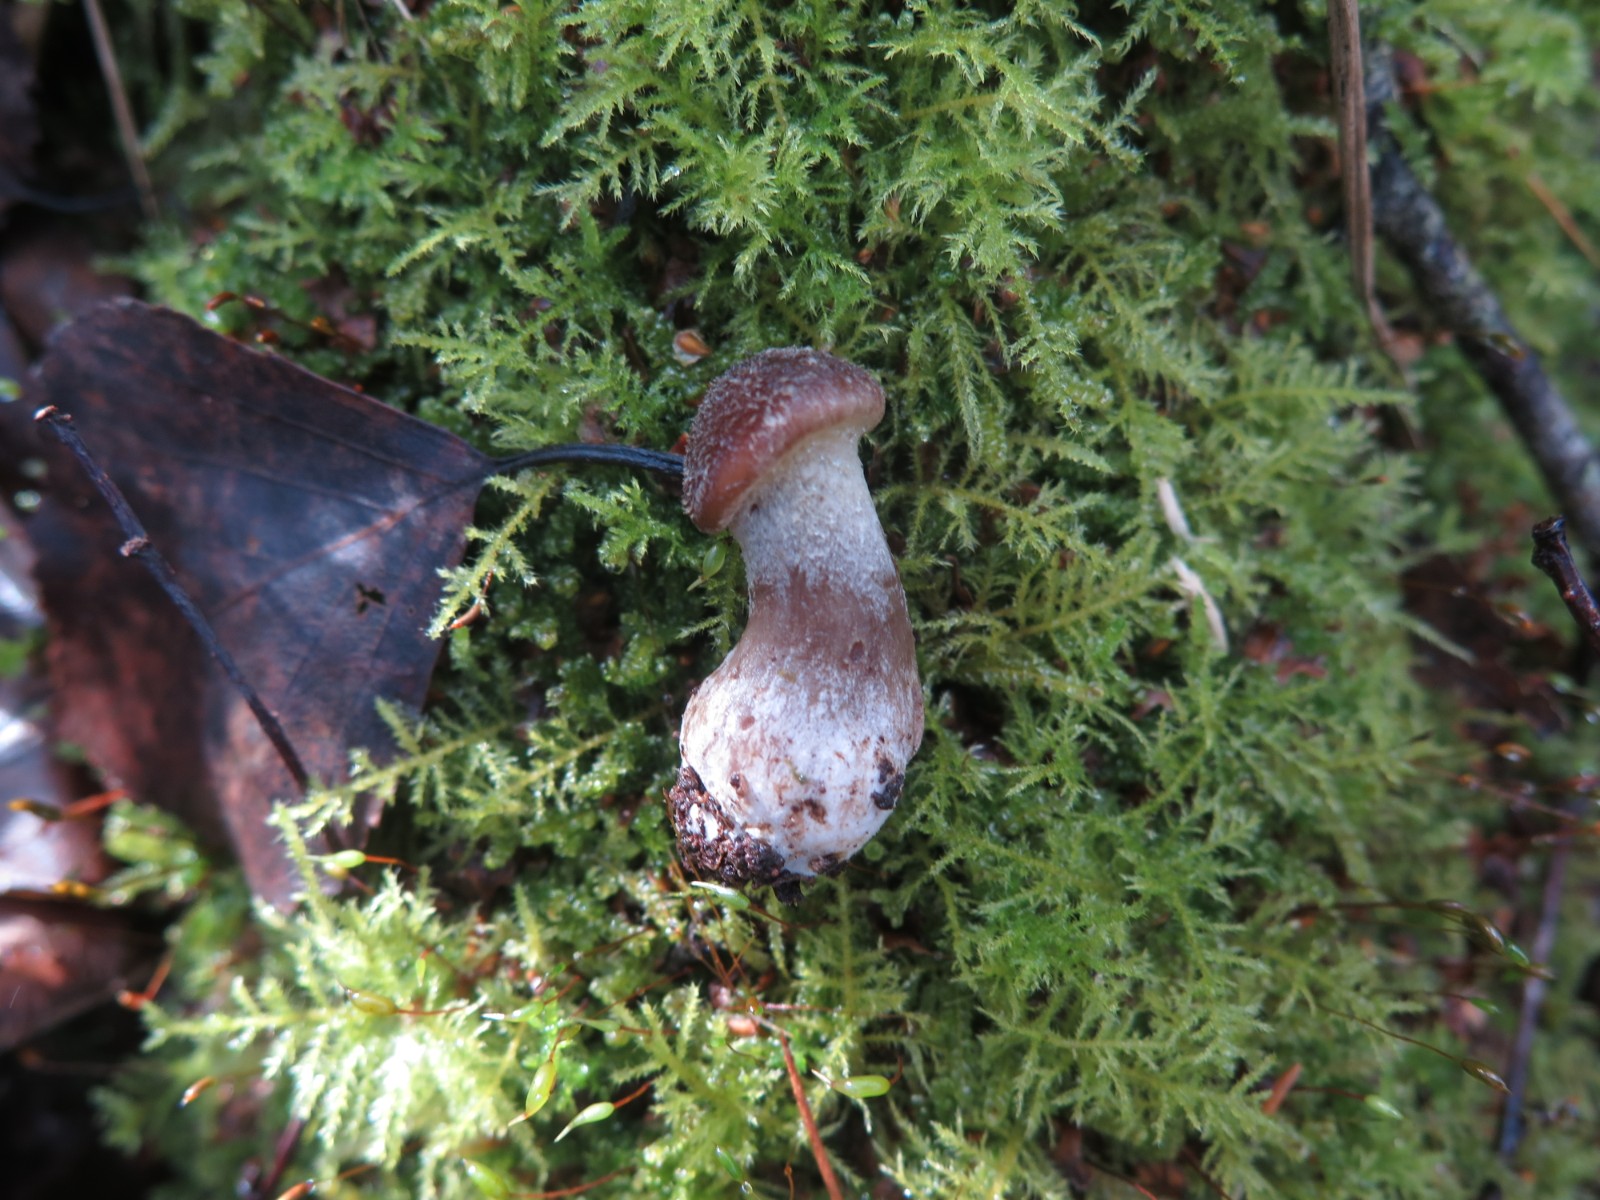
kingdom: Fungi
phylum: Basidiomycota
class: Agaricomycetes
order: Agaricales
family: Physalacriaceae
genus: Armillaria
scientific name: Armillaria lutea
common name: køllestokket honningsvamp
